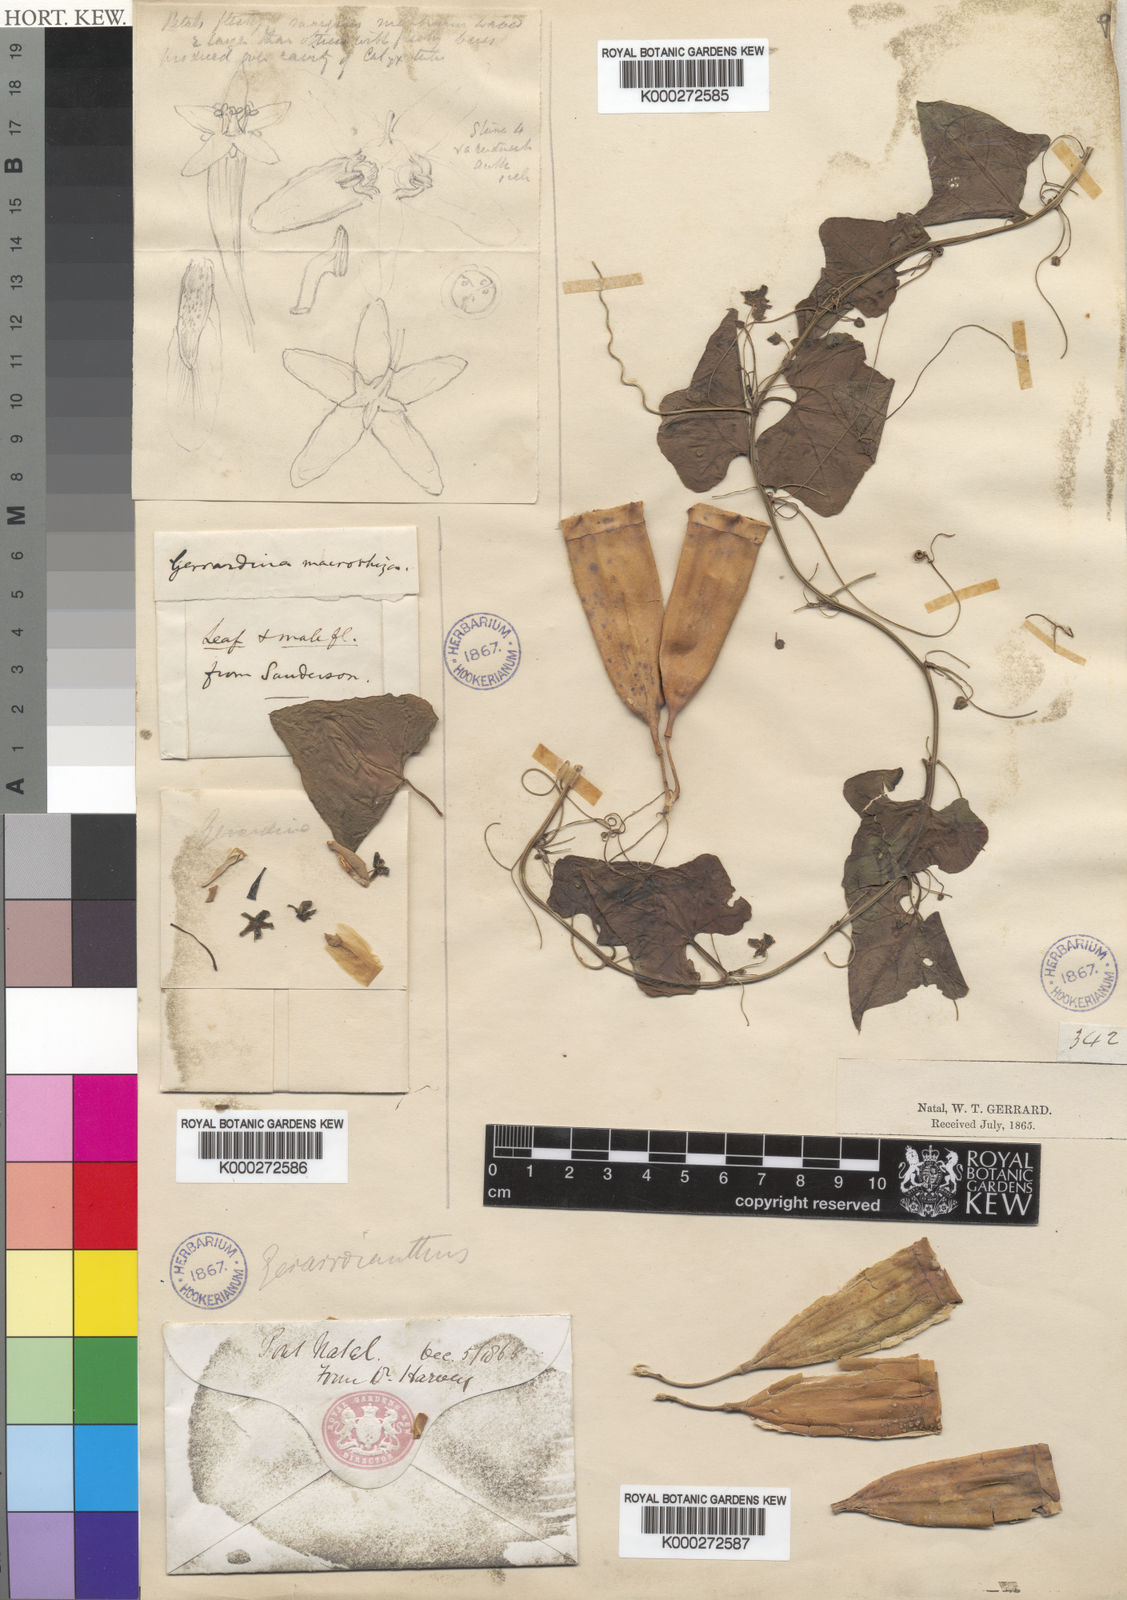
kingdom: Plantae
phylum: Tracheophyta
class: Magnoliopsida
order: Cucurbitales
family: Cucurbitaceae
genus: Gerrardanthus
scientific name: Gerrardanthus macrorhizus
